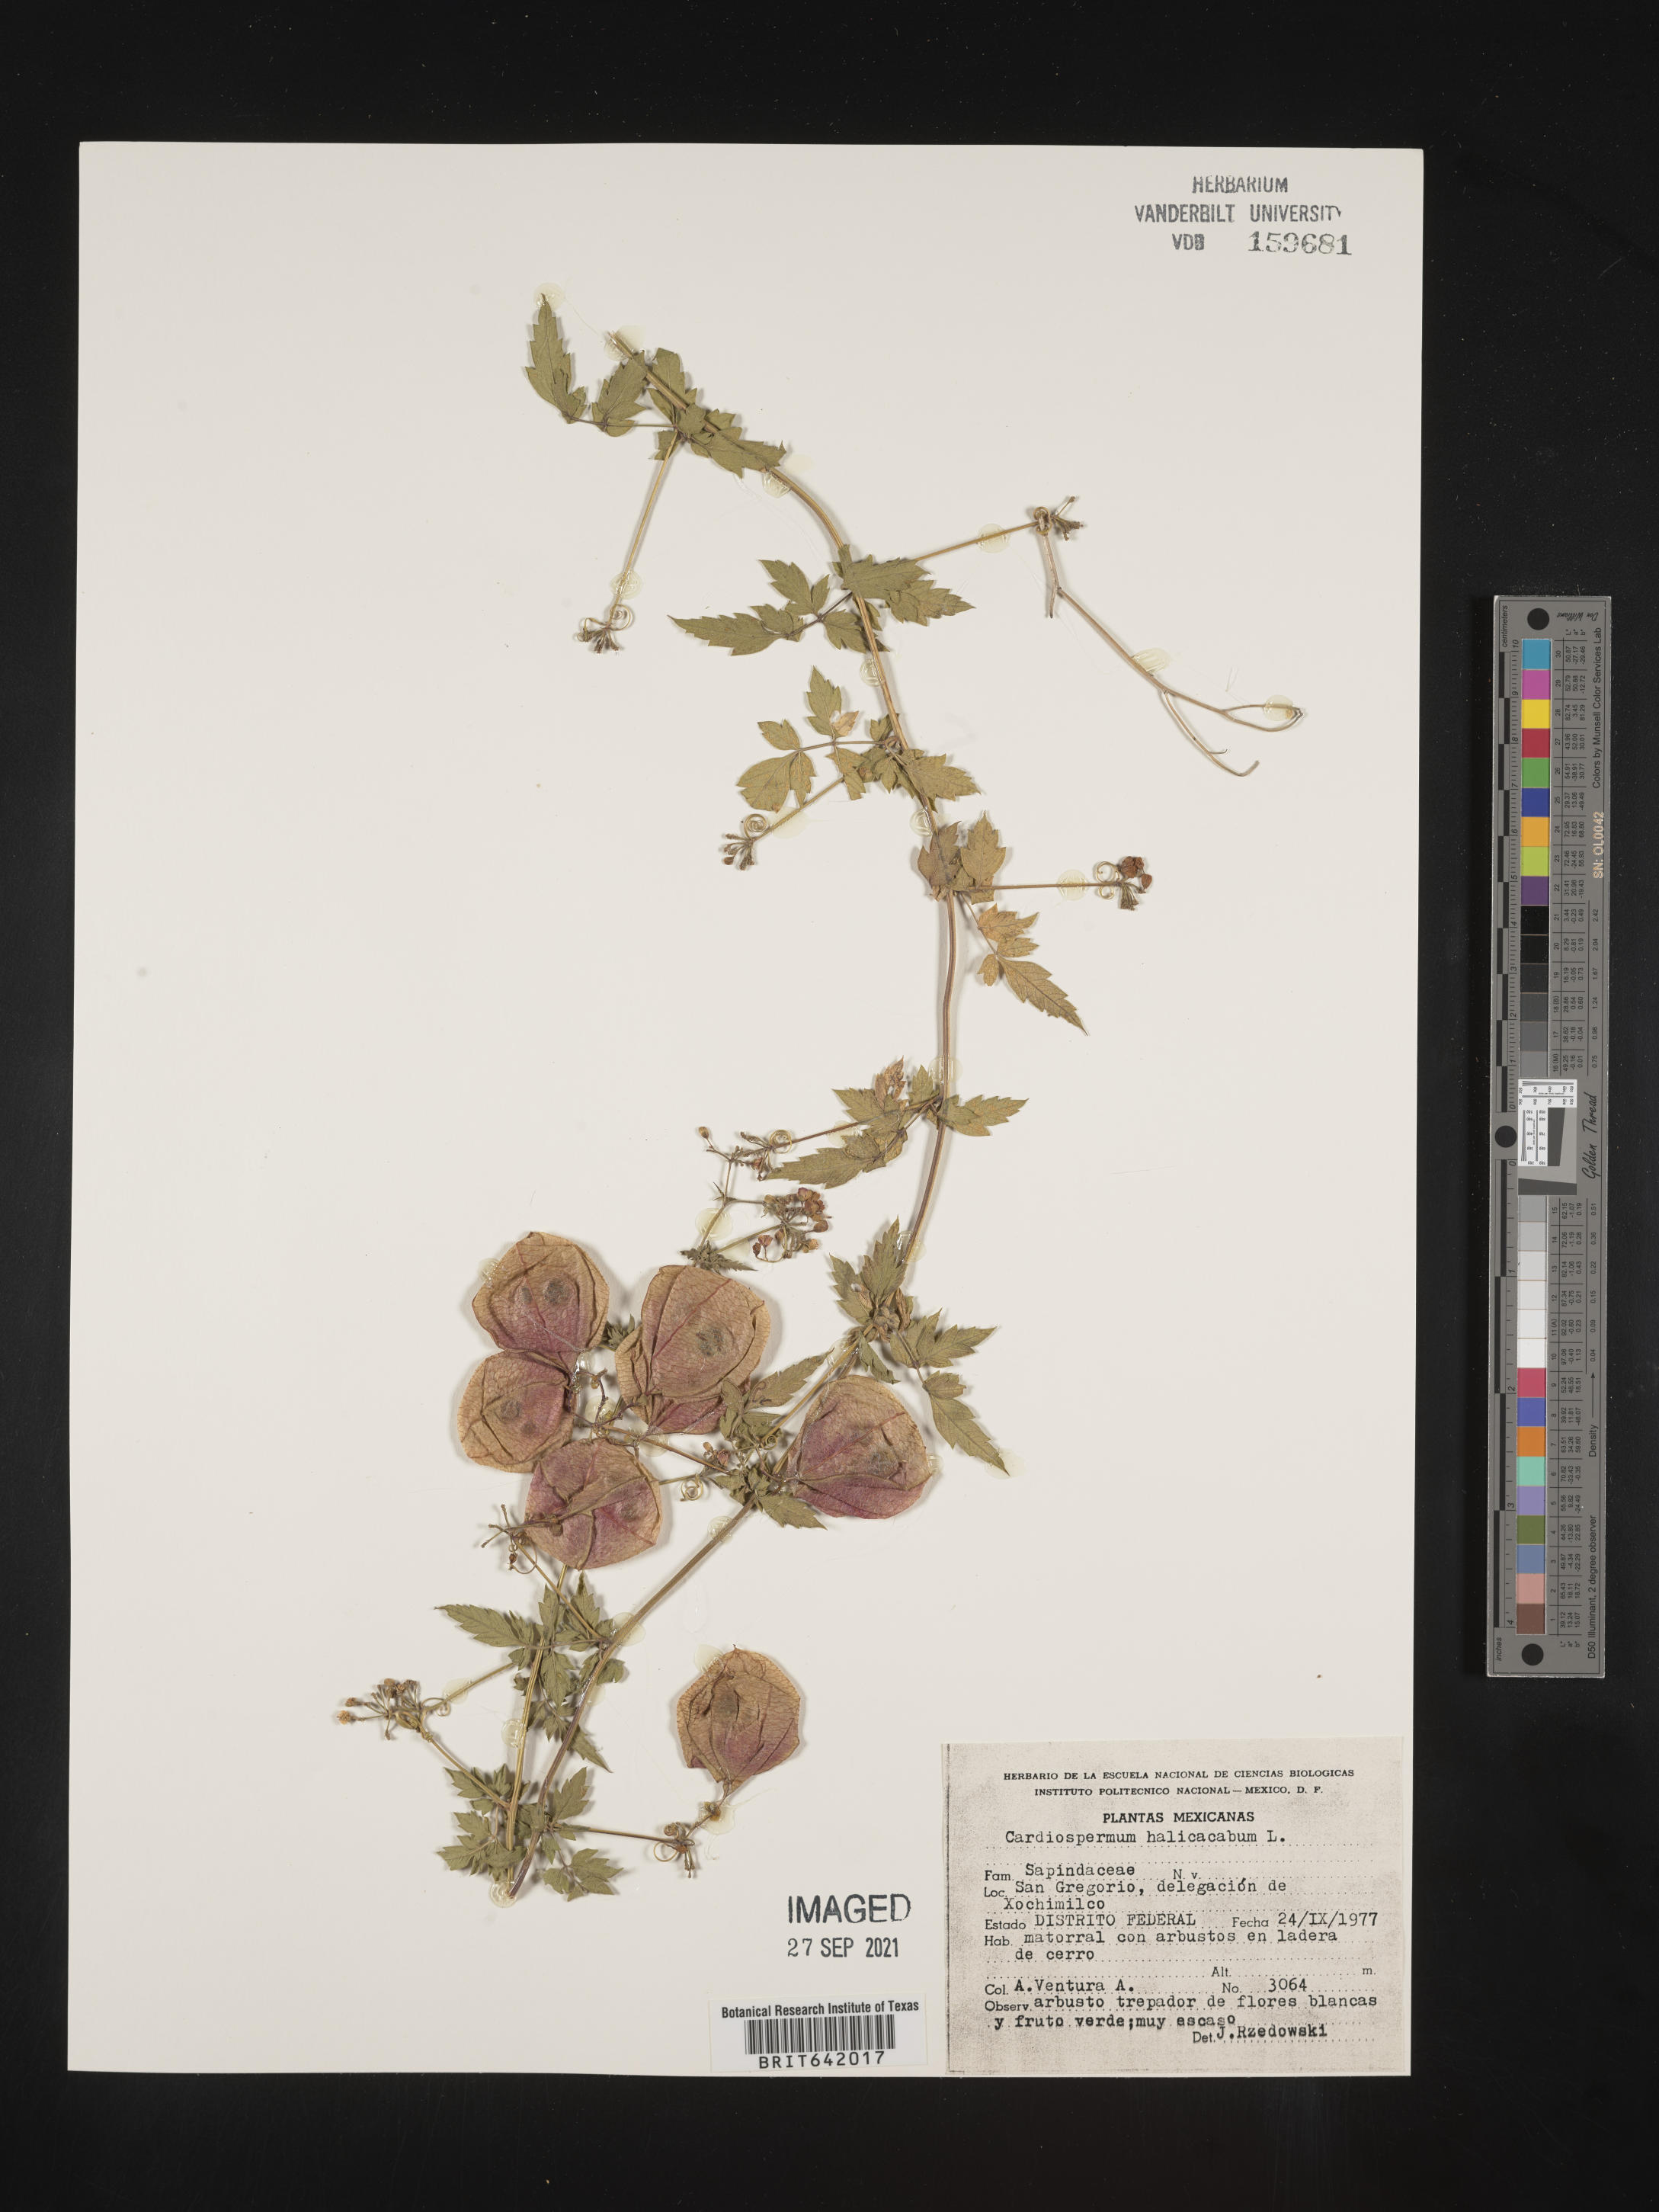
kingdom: Plantae
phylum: Tracheophyta
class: Magnoliopsida
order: Sapindales
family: Sapindaceae
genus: Cardiospermum
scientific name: Cardiospermum
